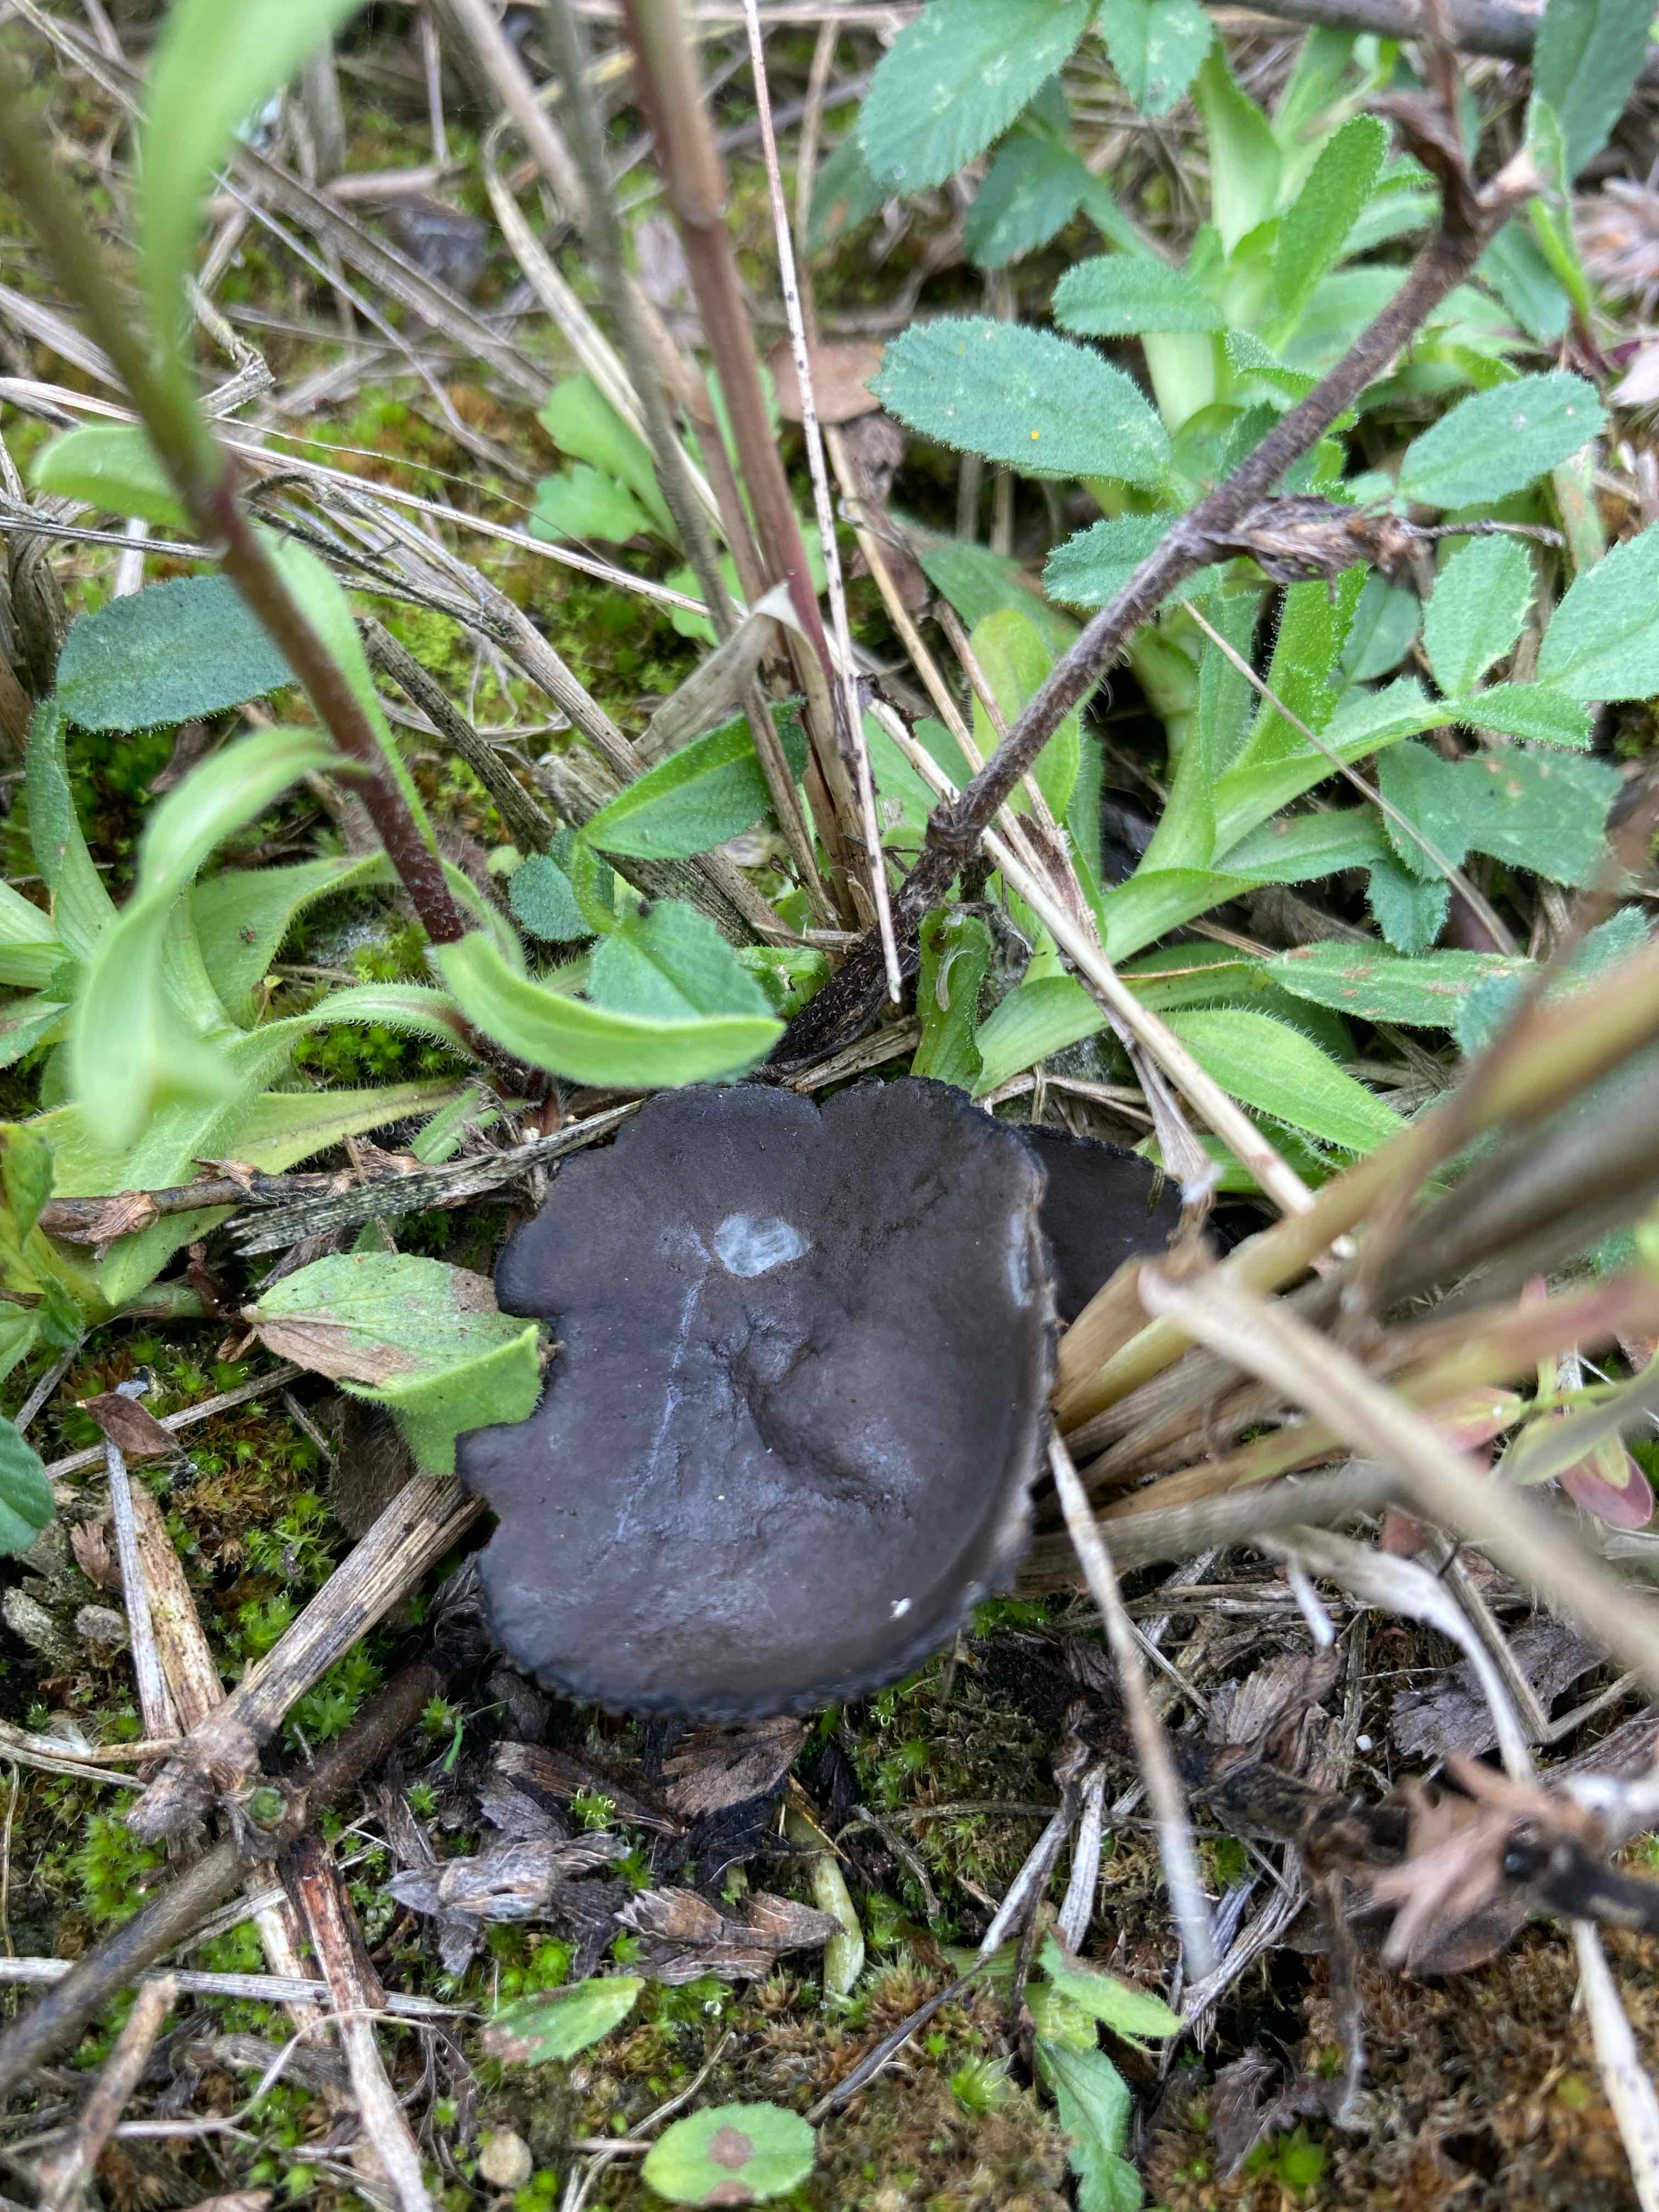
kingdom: Fungi
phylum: Ascomycota
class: Pezizomycetes
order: Pezizales
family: Helvellaceae
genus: Helvella
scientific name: Helvella corium
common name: pile-foldhat
